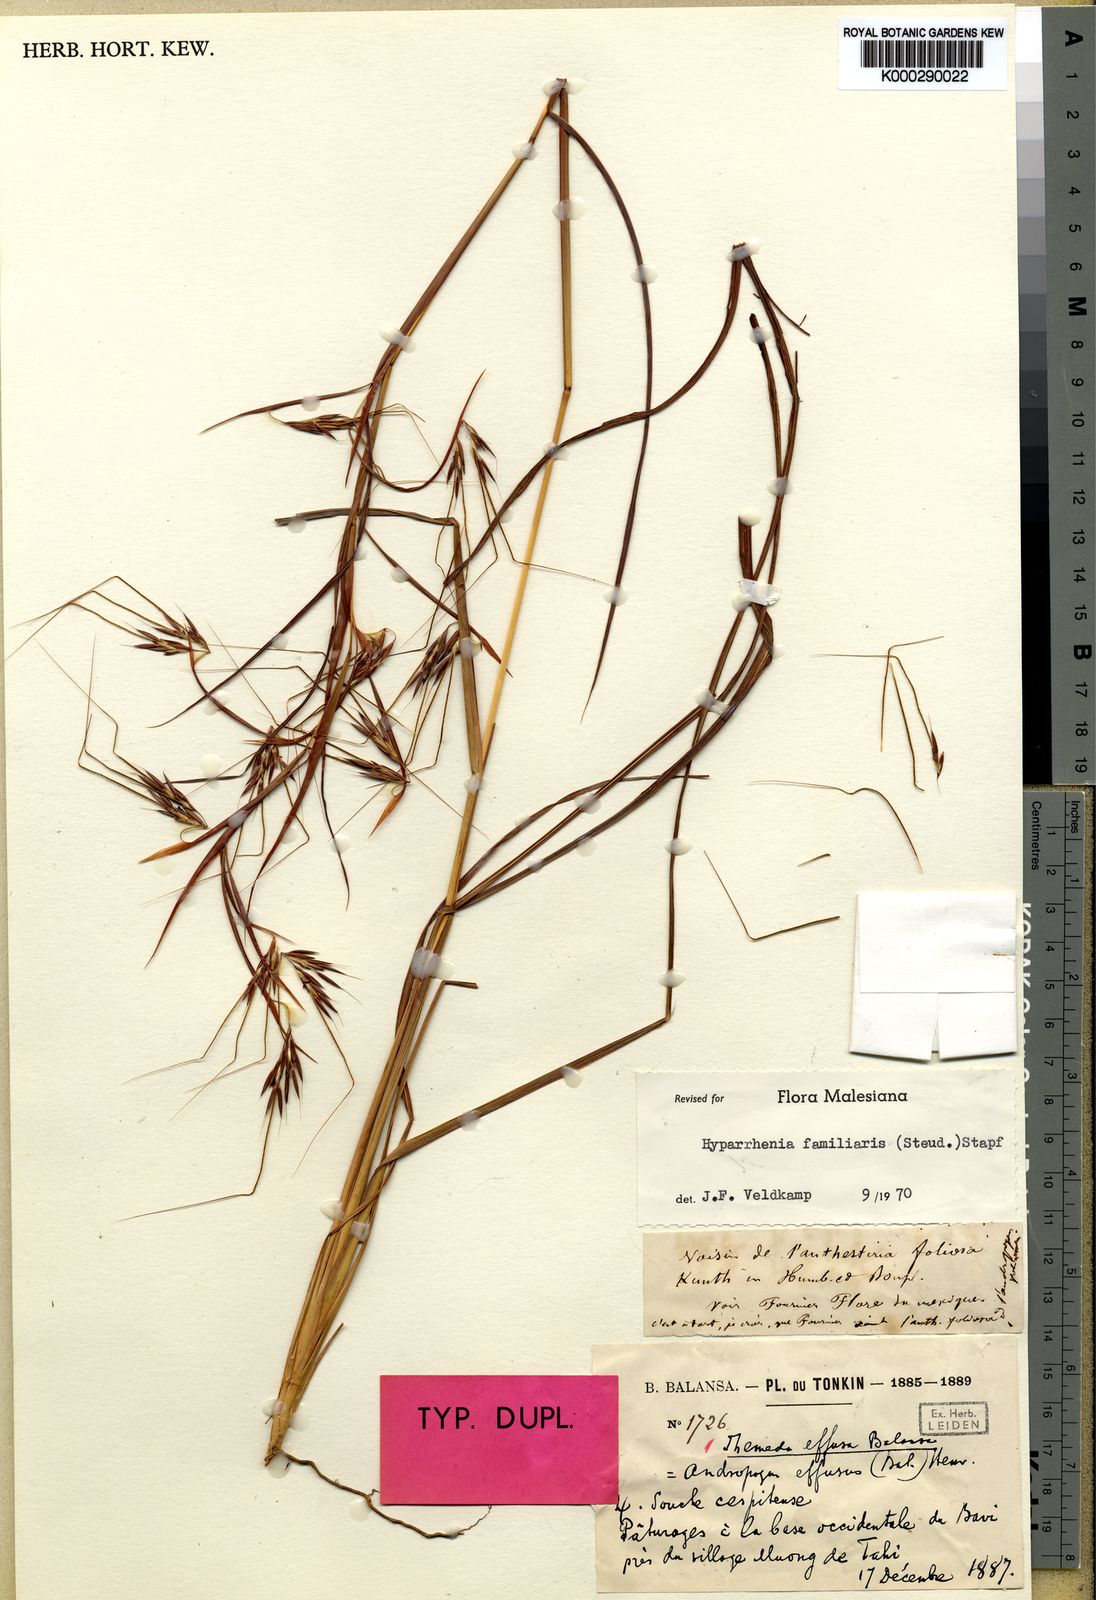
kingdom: Plantae
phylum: Tracheophyta
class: Liliopsida
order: Poales
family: Poaceae
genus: Hyparrhenia
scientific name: Hyparrhenia familiaris
